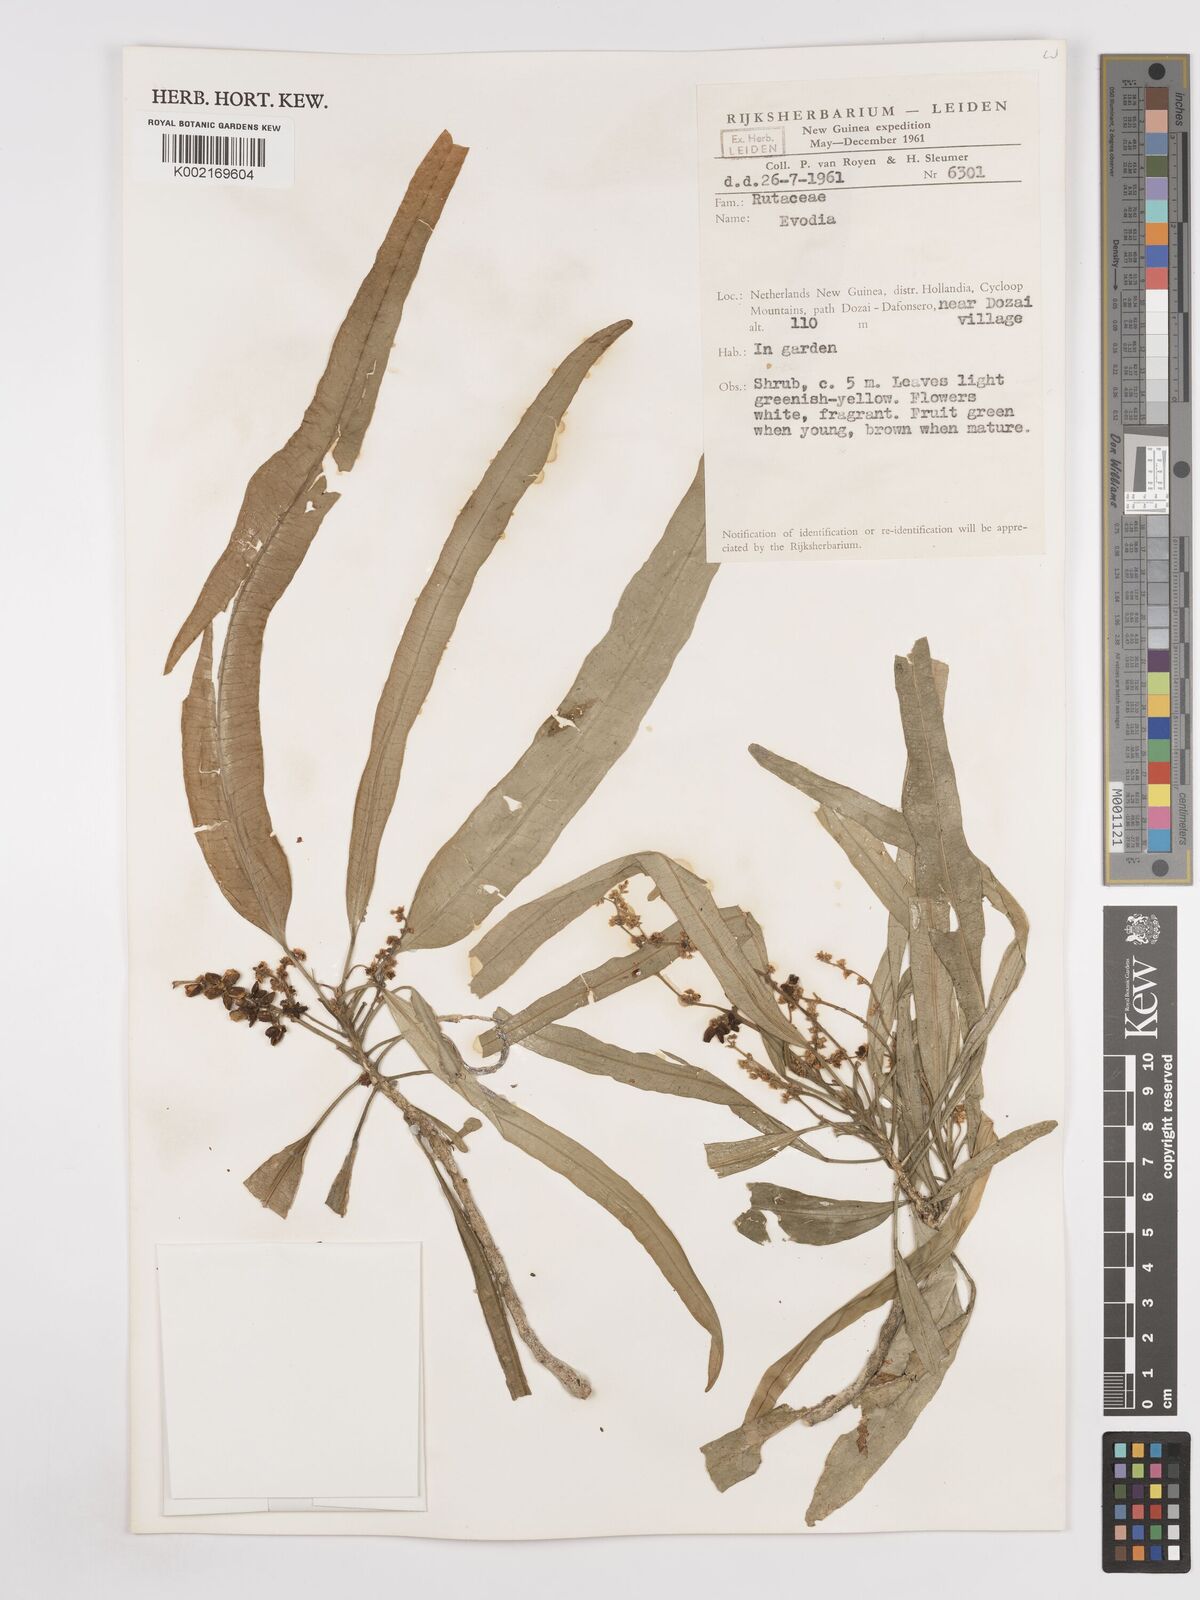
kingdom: Plantae
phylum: Tracheophyta
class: Magnoliopsida
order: Sapindales
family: Rutaceae
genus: Euodia
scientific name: Euodia
